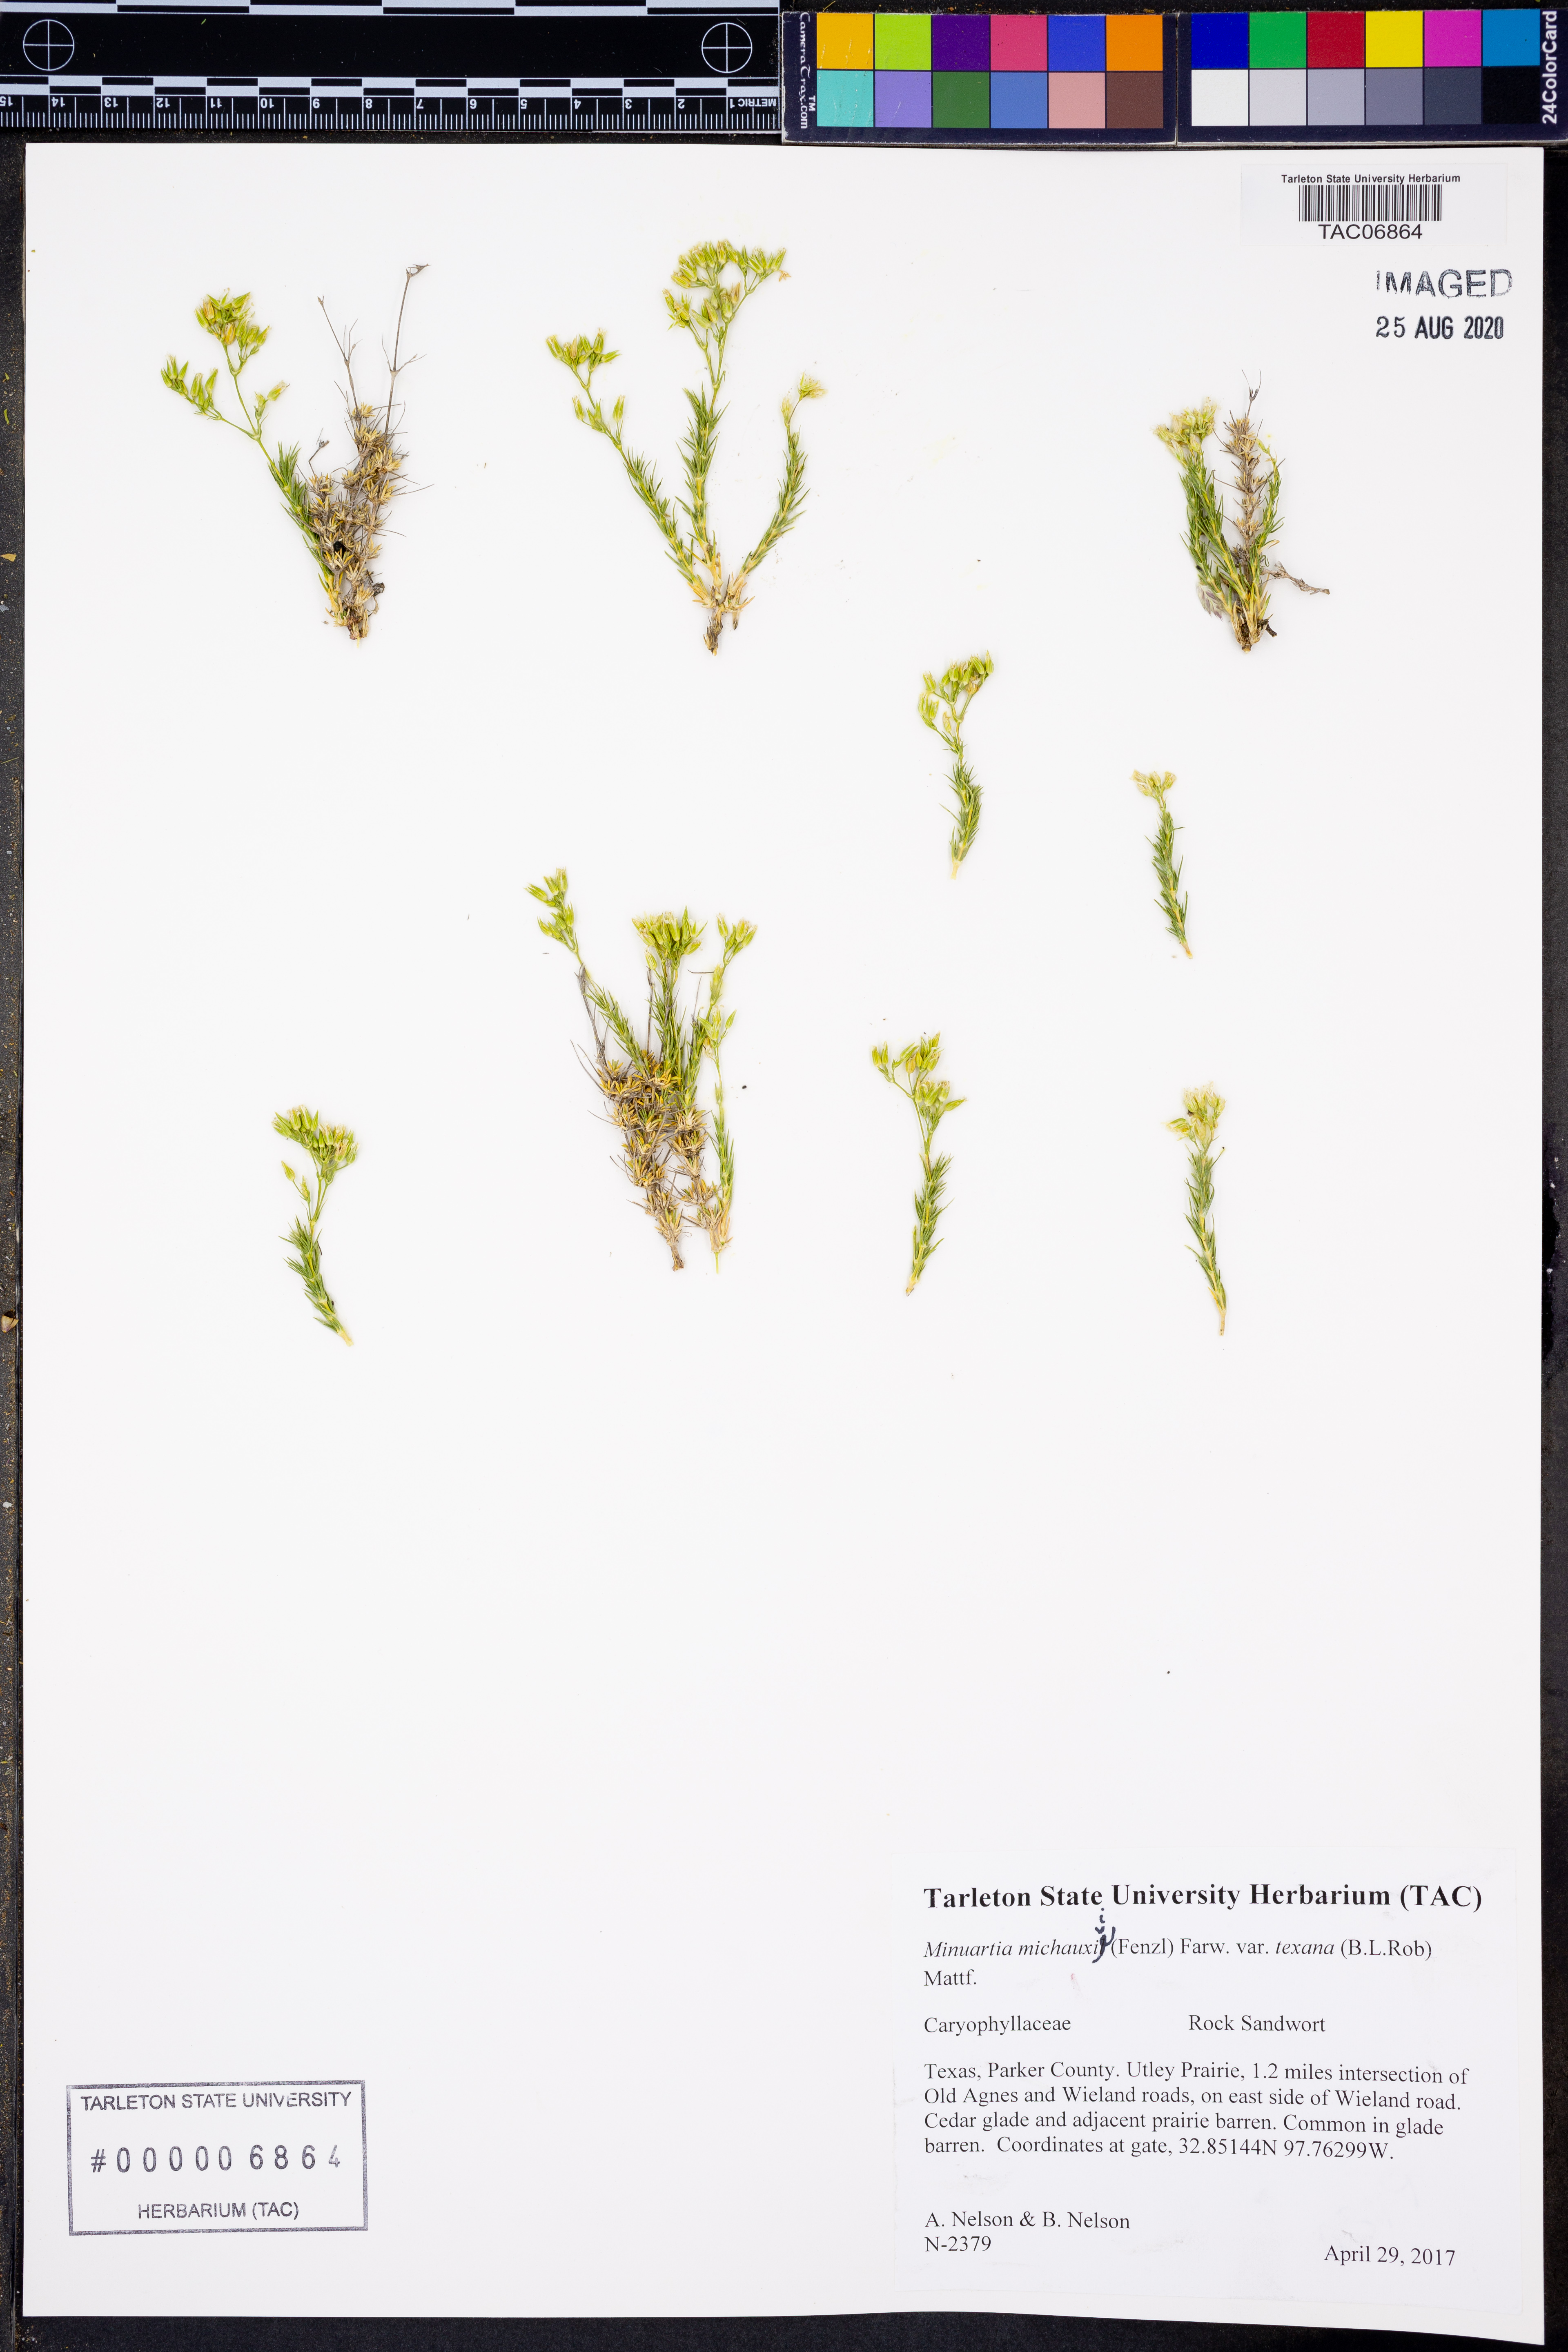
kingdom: Plantae
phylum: Tracheophyta
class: Magnoliopsida
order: Caryophyllales
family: Caryophyllaceae
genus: Sabulina
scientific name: Sabulina texana
